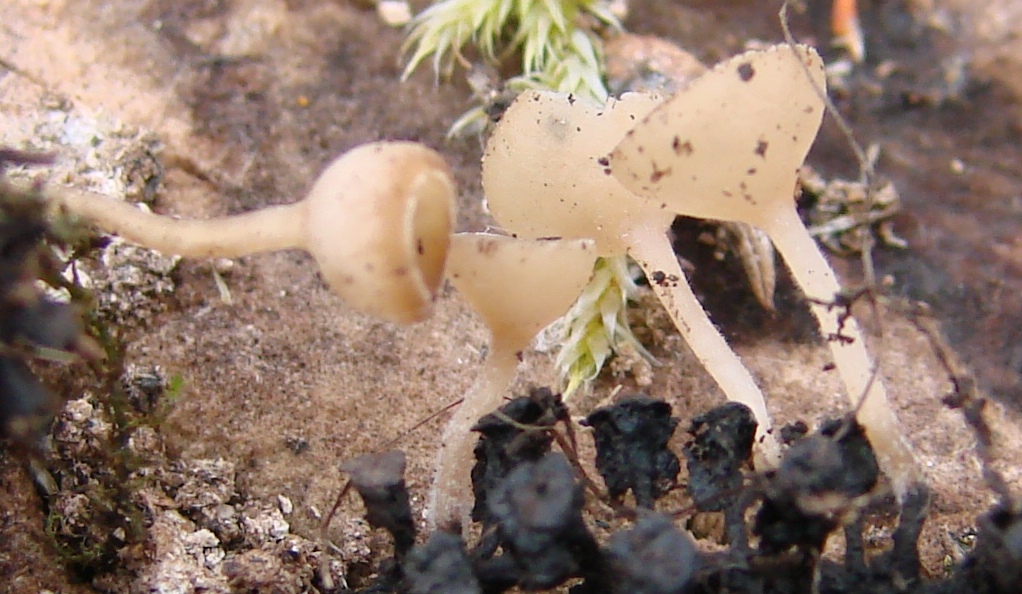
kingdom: Fungi
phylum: Ascomycota
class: Leotiomycetes
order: Helotiales
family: Sclerotiniaceae
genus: Ciboria
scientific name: Ciboria amentacea
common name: ellerakle-knoldskive
